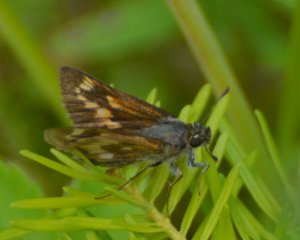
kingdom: Animalia
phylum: Arthropoda
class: Insecta
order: Lepidoptera
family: Hesperiidae
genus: Polites
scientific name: Polites
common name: Long Dash Skipper
